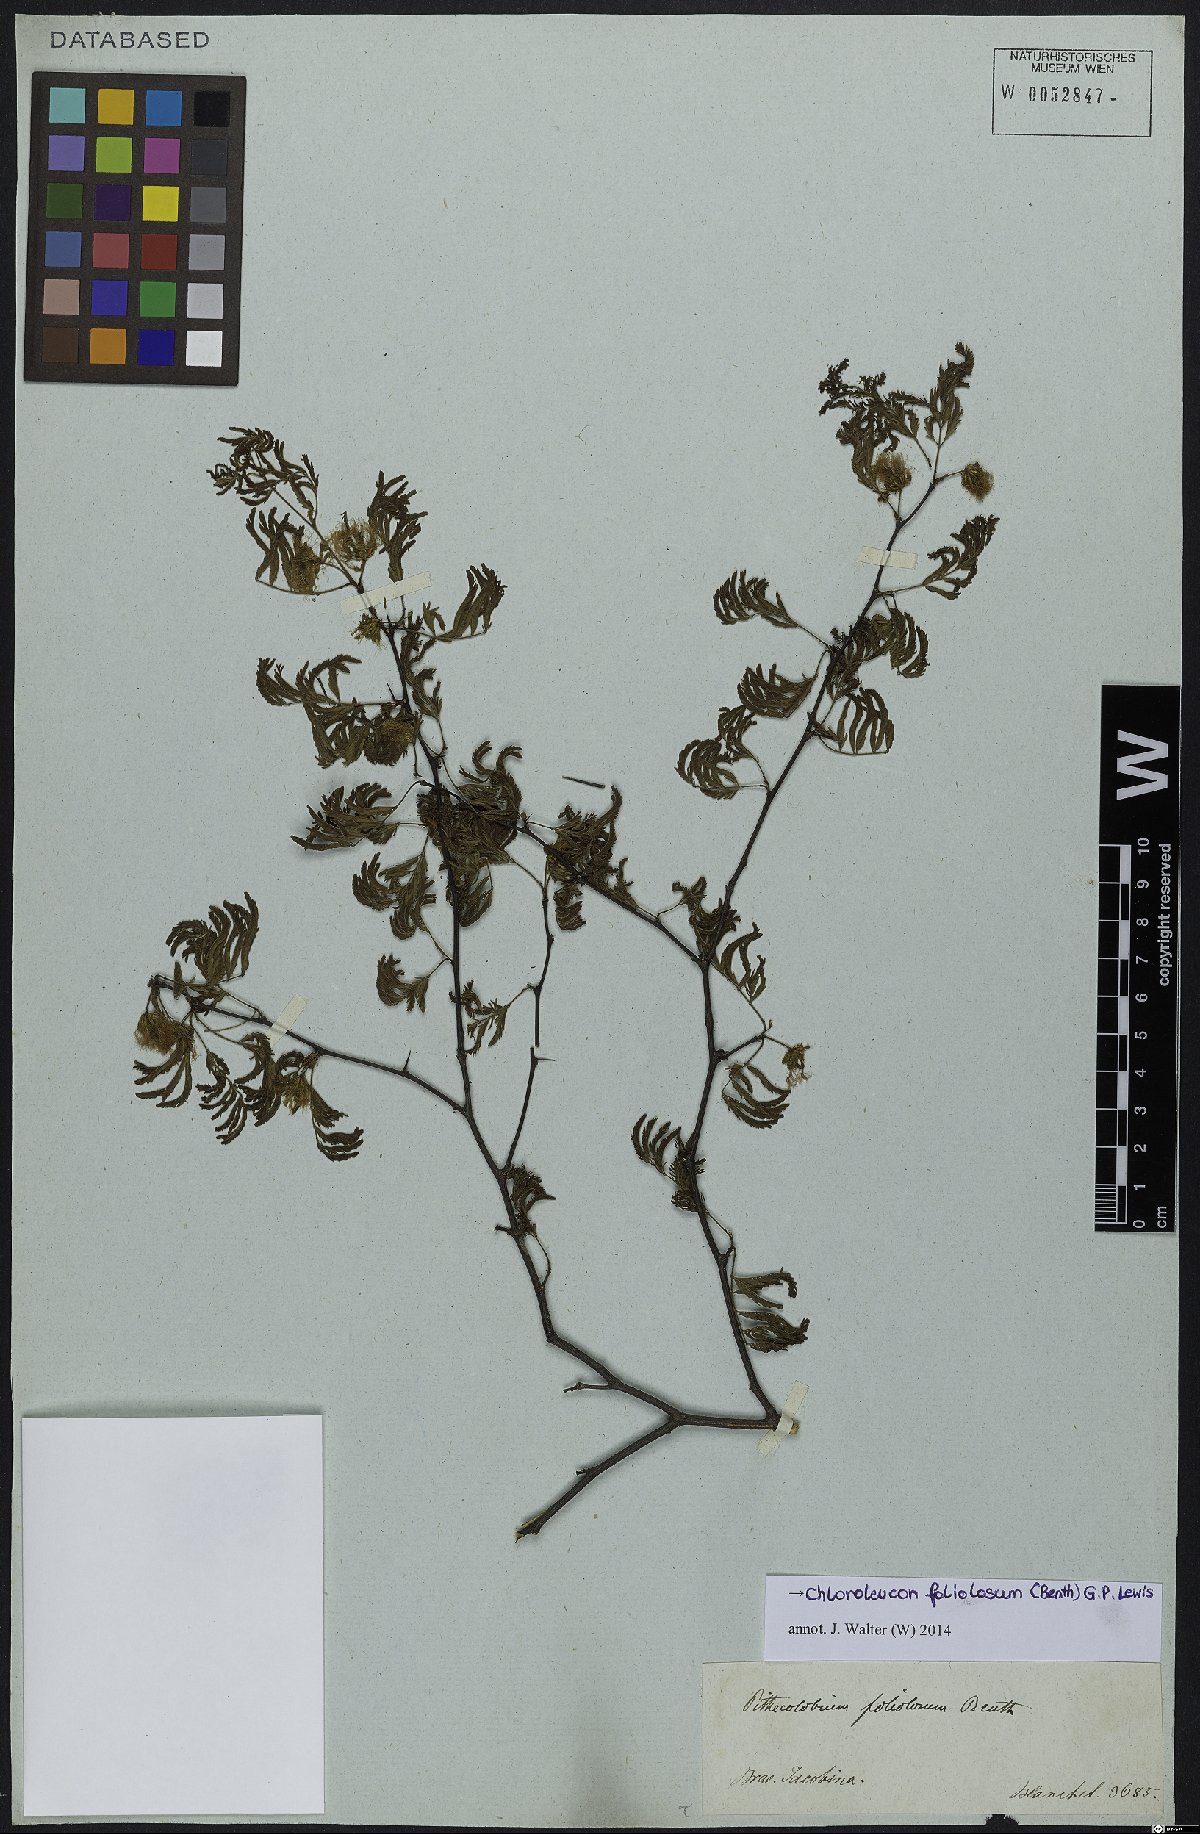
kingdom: Plantae
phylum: Tracheophyta
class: Magnoliopsida
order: Fabales
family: Fabaceae
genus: Chloroleucon
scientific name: Chloroleucon foliolosum
